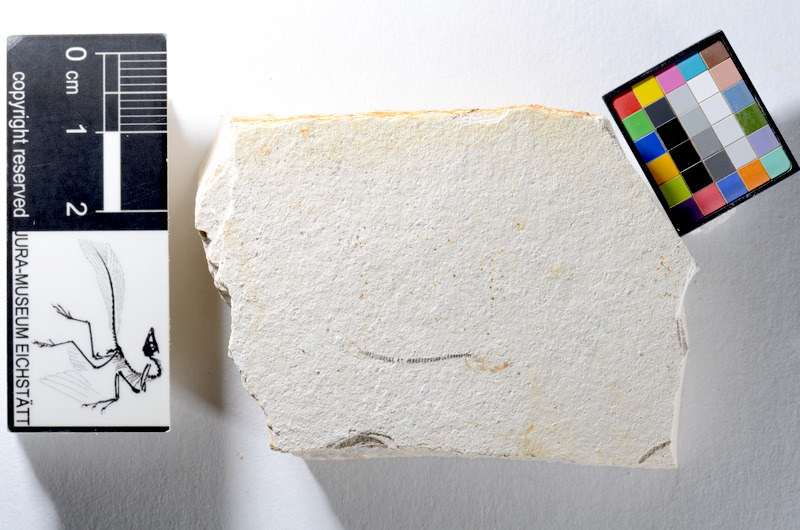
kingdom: Animalia
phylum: Chordata
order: Salmoniformes
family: Orthogonikleithridae
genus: Orthogonikleithrus
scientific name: Orthogonikleithrus hoelli
